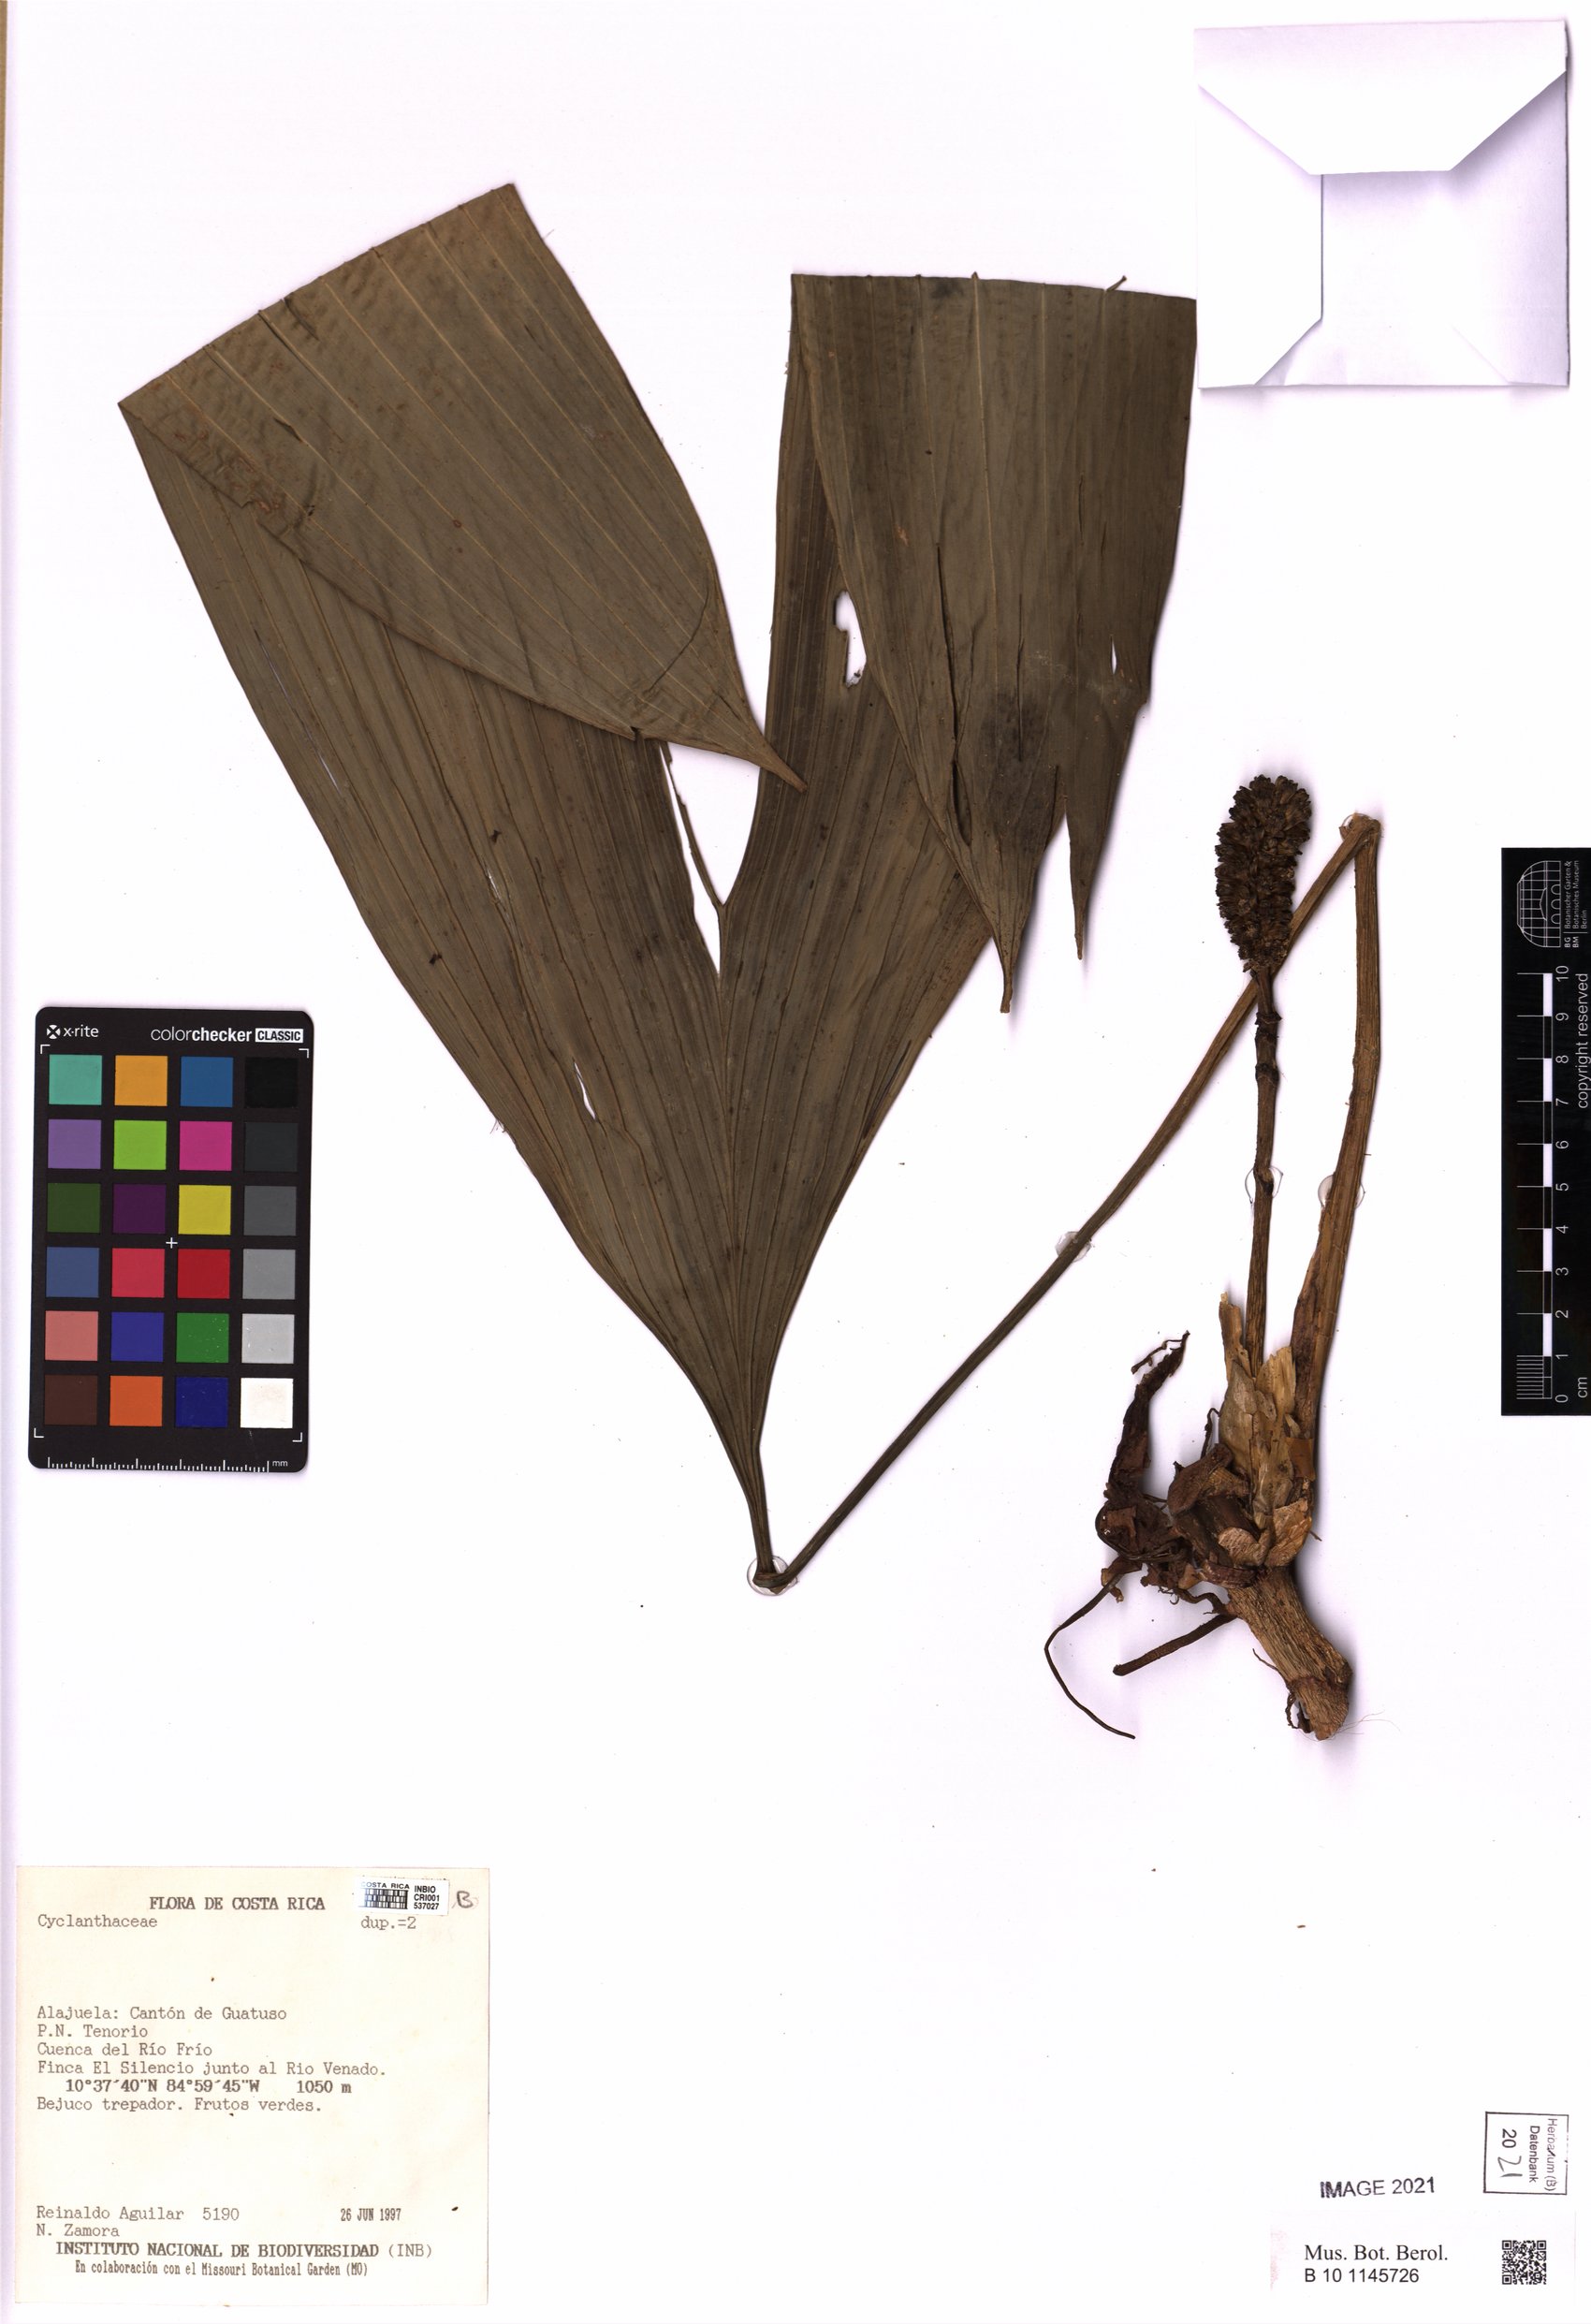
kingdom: Plantae
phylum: Tracheophyta
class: Liliopsida
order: Pandanales
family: Cyclanthaceae
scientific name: Cyclanthaceae
